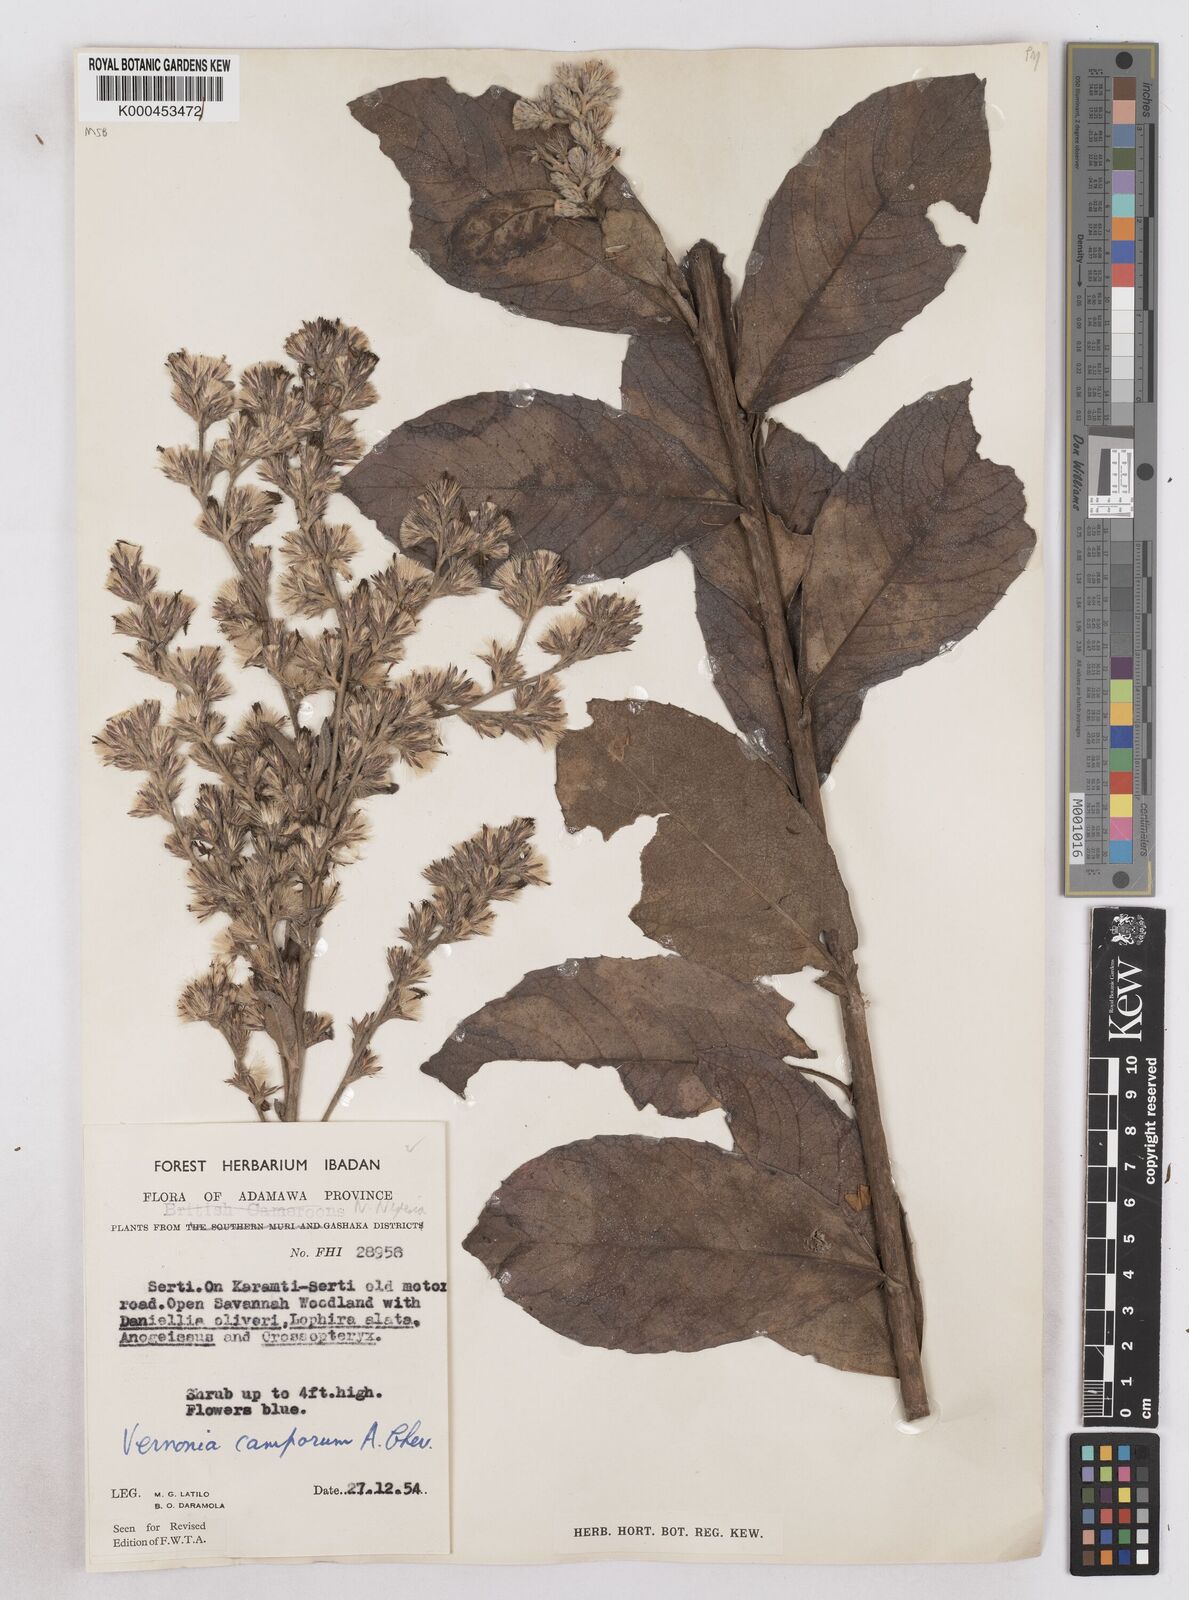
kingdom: Plantae
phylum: Tracheophyta
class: Magnoliopsida
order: Asterales
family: Asteraceae
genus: Vernoniastrum
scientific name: Vernoniastrum camporum
